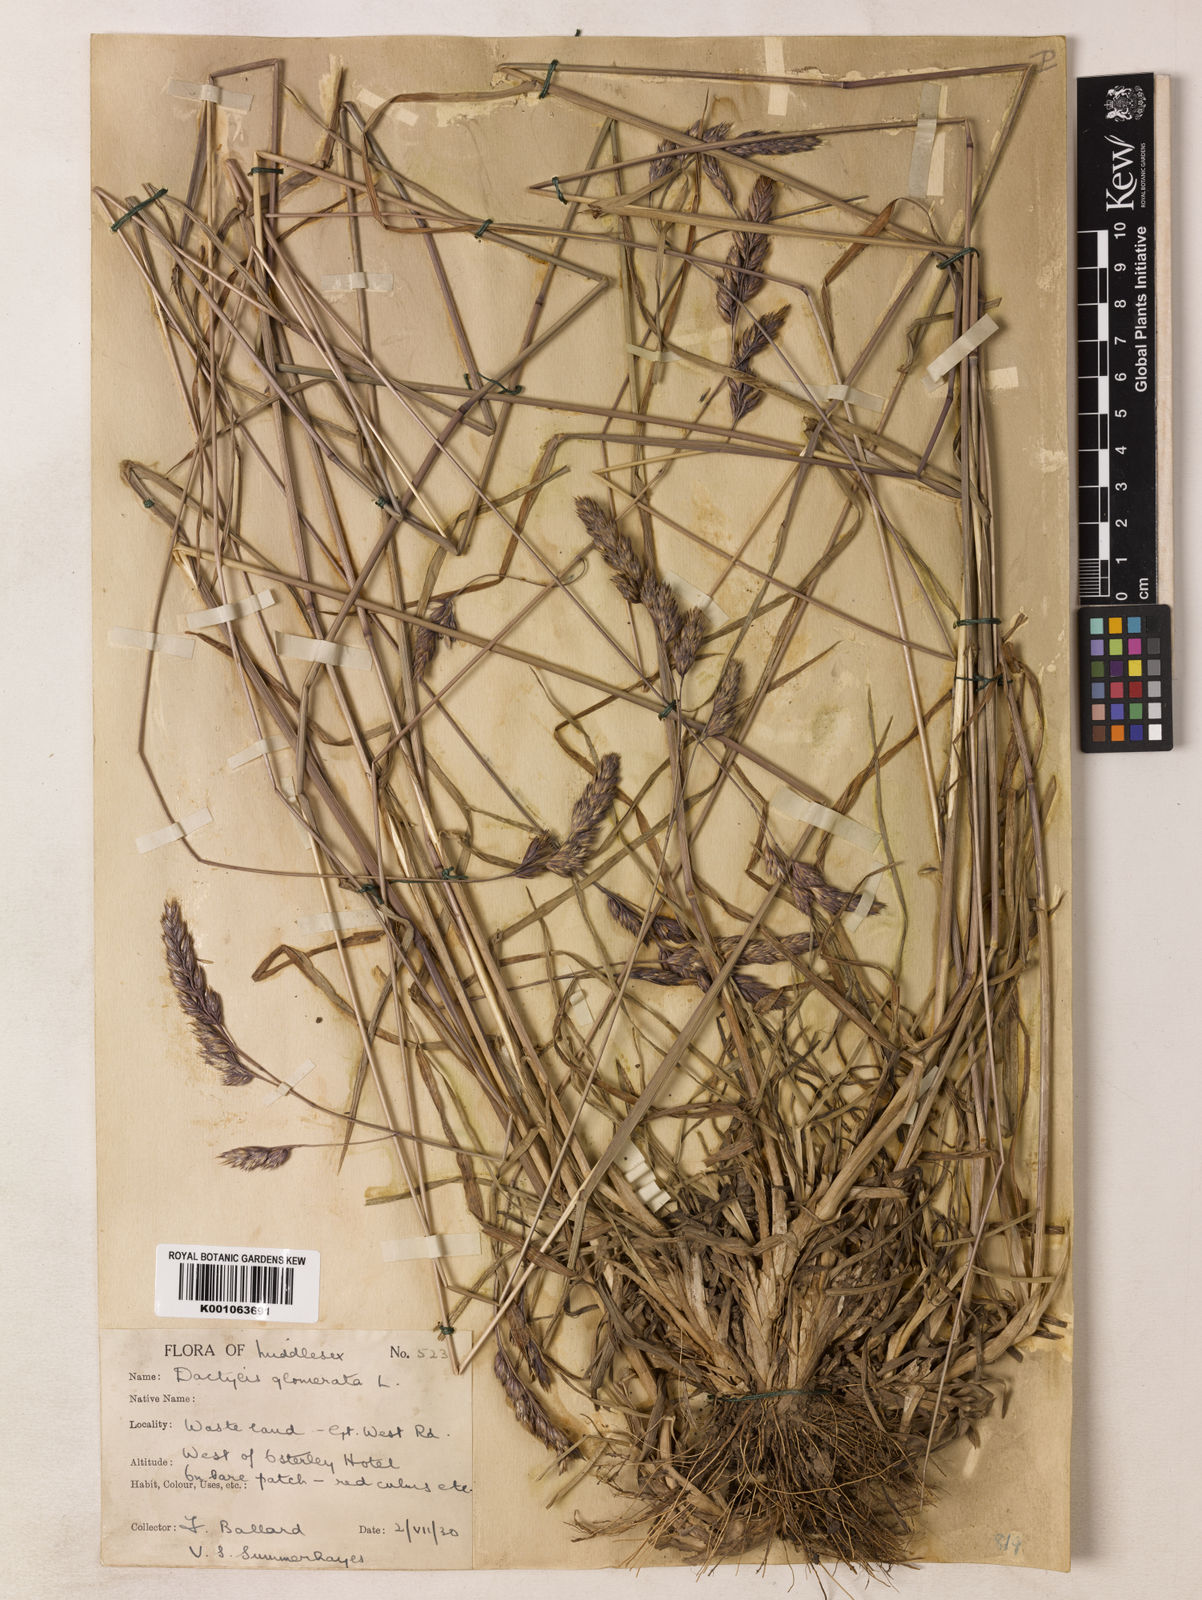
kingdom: Plantae
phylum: Tracheophyta
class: Liliopsida
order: Poales
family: Poaceae
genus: Dactylis
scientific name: Dactylis glomerata
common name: Orchardgrass
